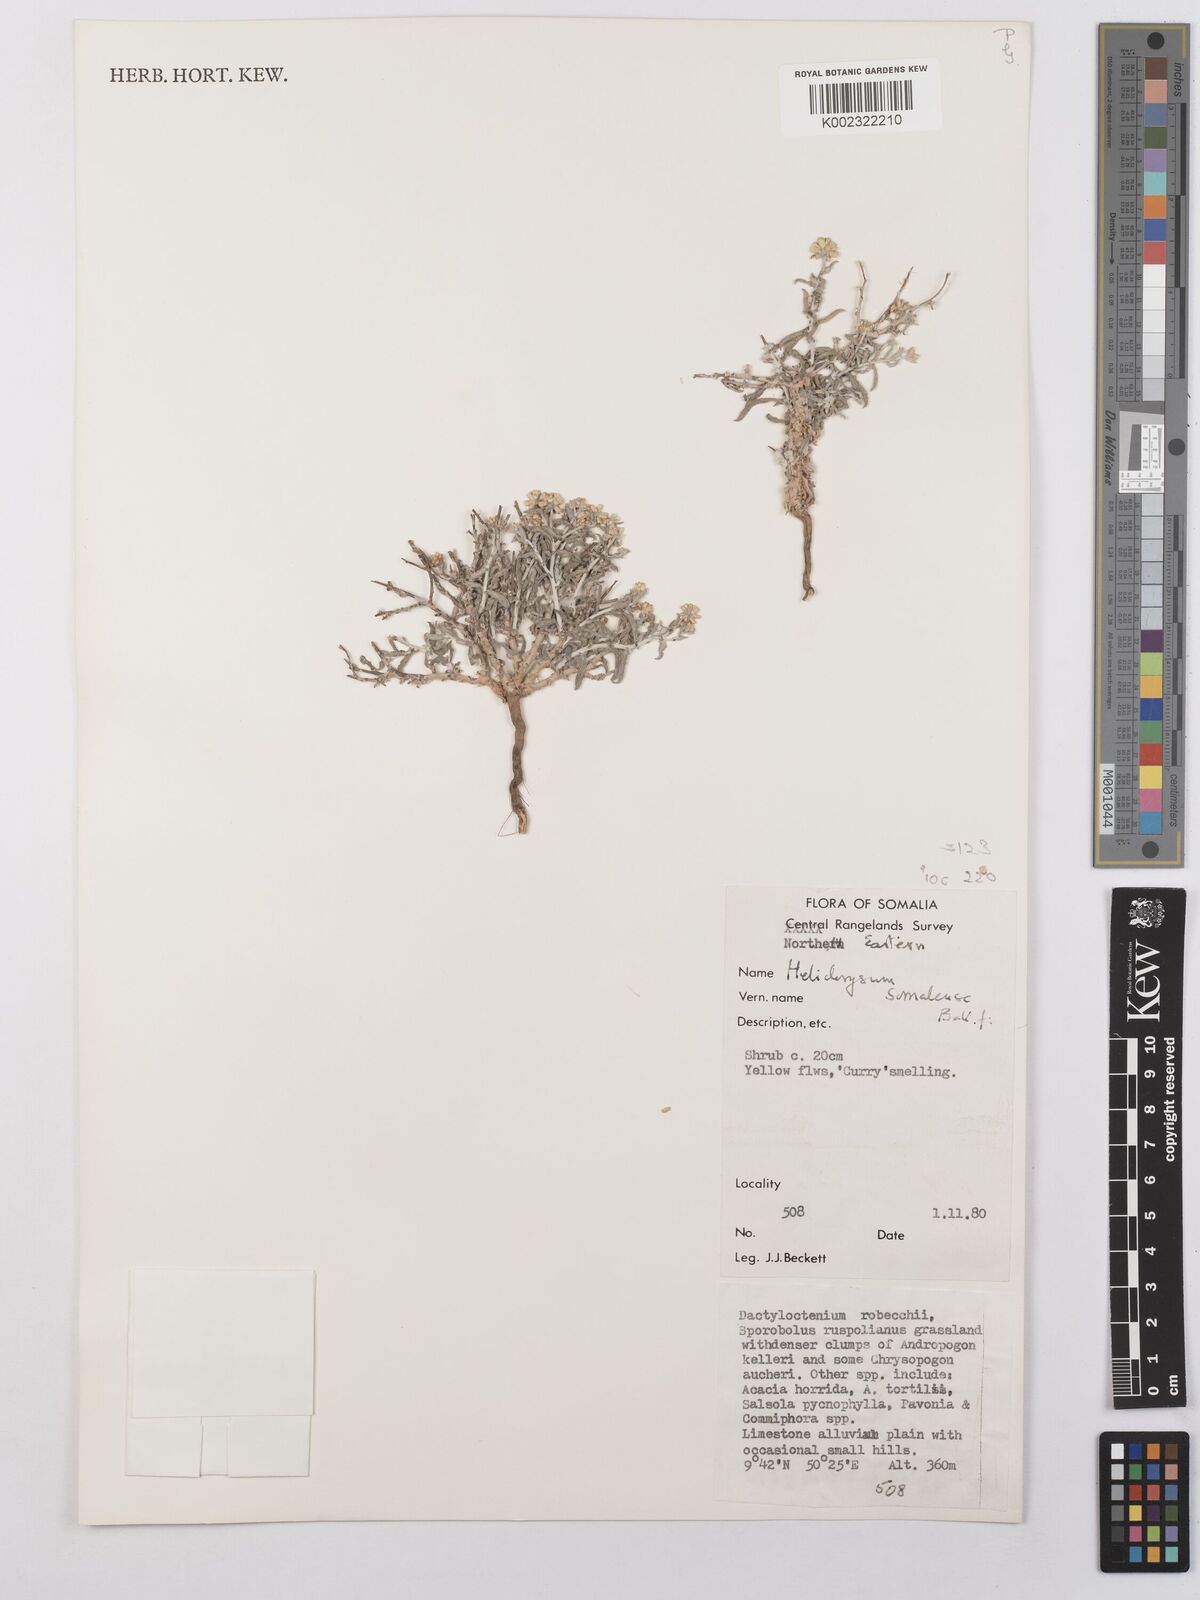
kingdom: Plantae
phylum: Tracheophyta
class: Magnoliopsida
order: Asterales
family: Asteraceae
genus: Helichrysum
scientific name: Helichrysum somalense
